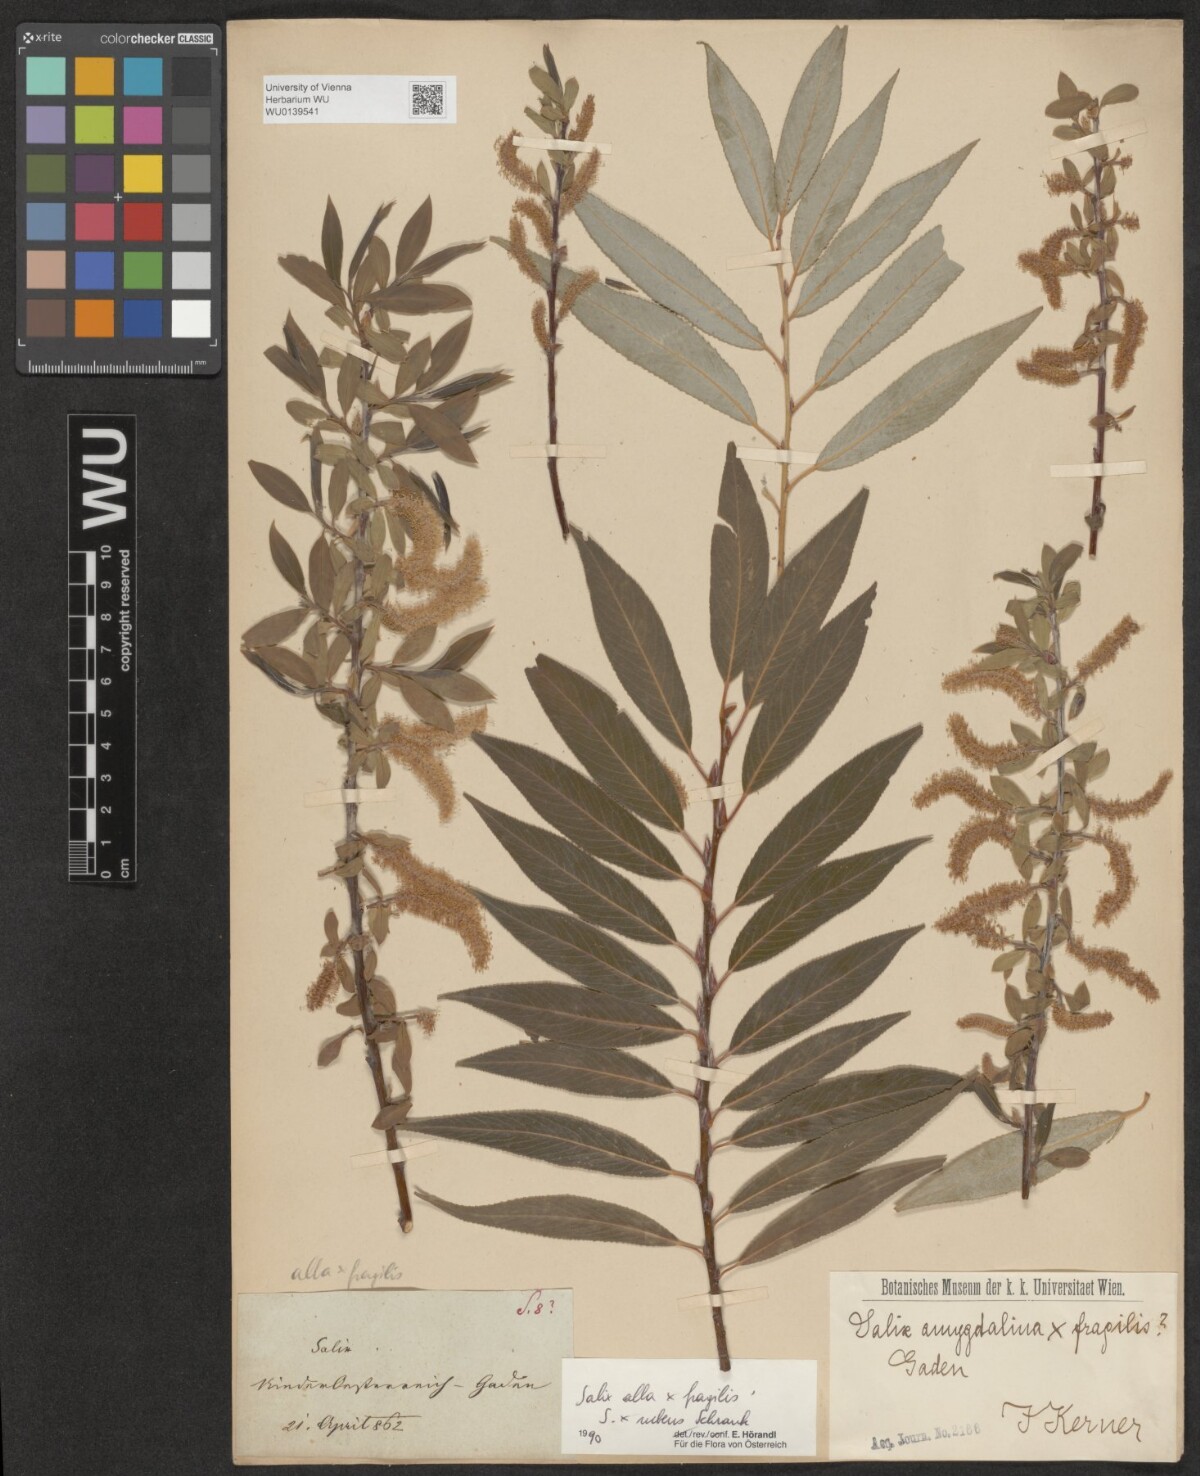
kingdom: Plantae
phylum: Tracheophyta
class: Magnoliopsida
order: Malpighiales
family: Salicaceae
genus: Salix
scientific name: Salix rubens
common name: Hybrid crack willow
